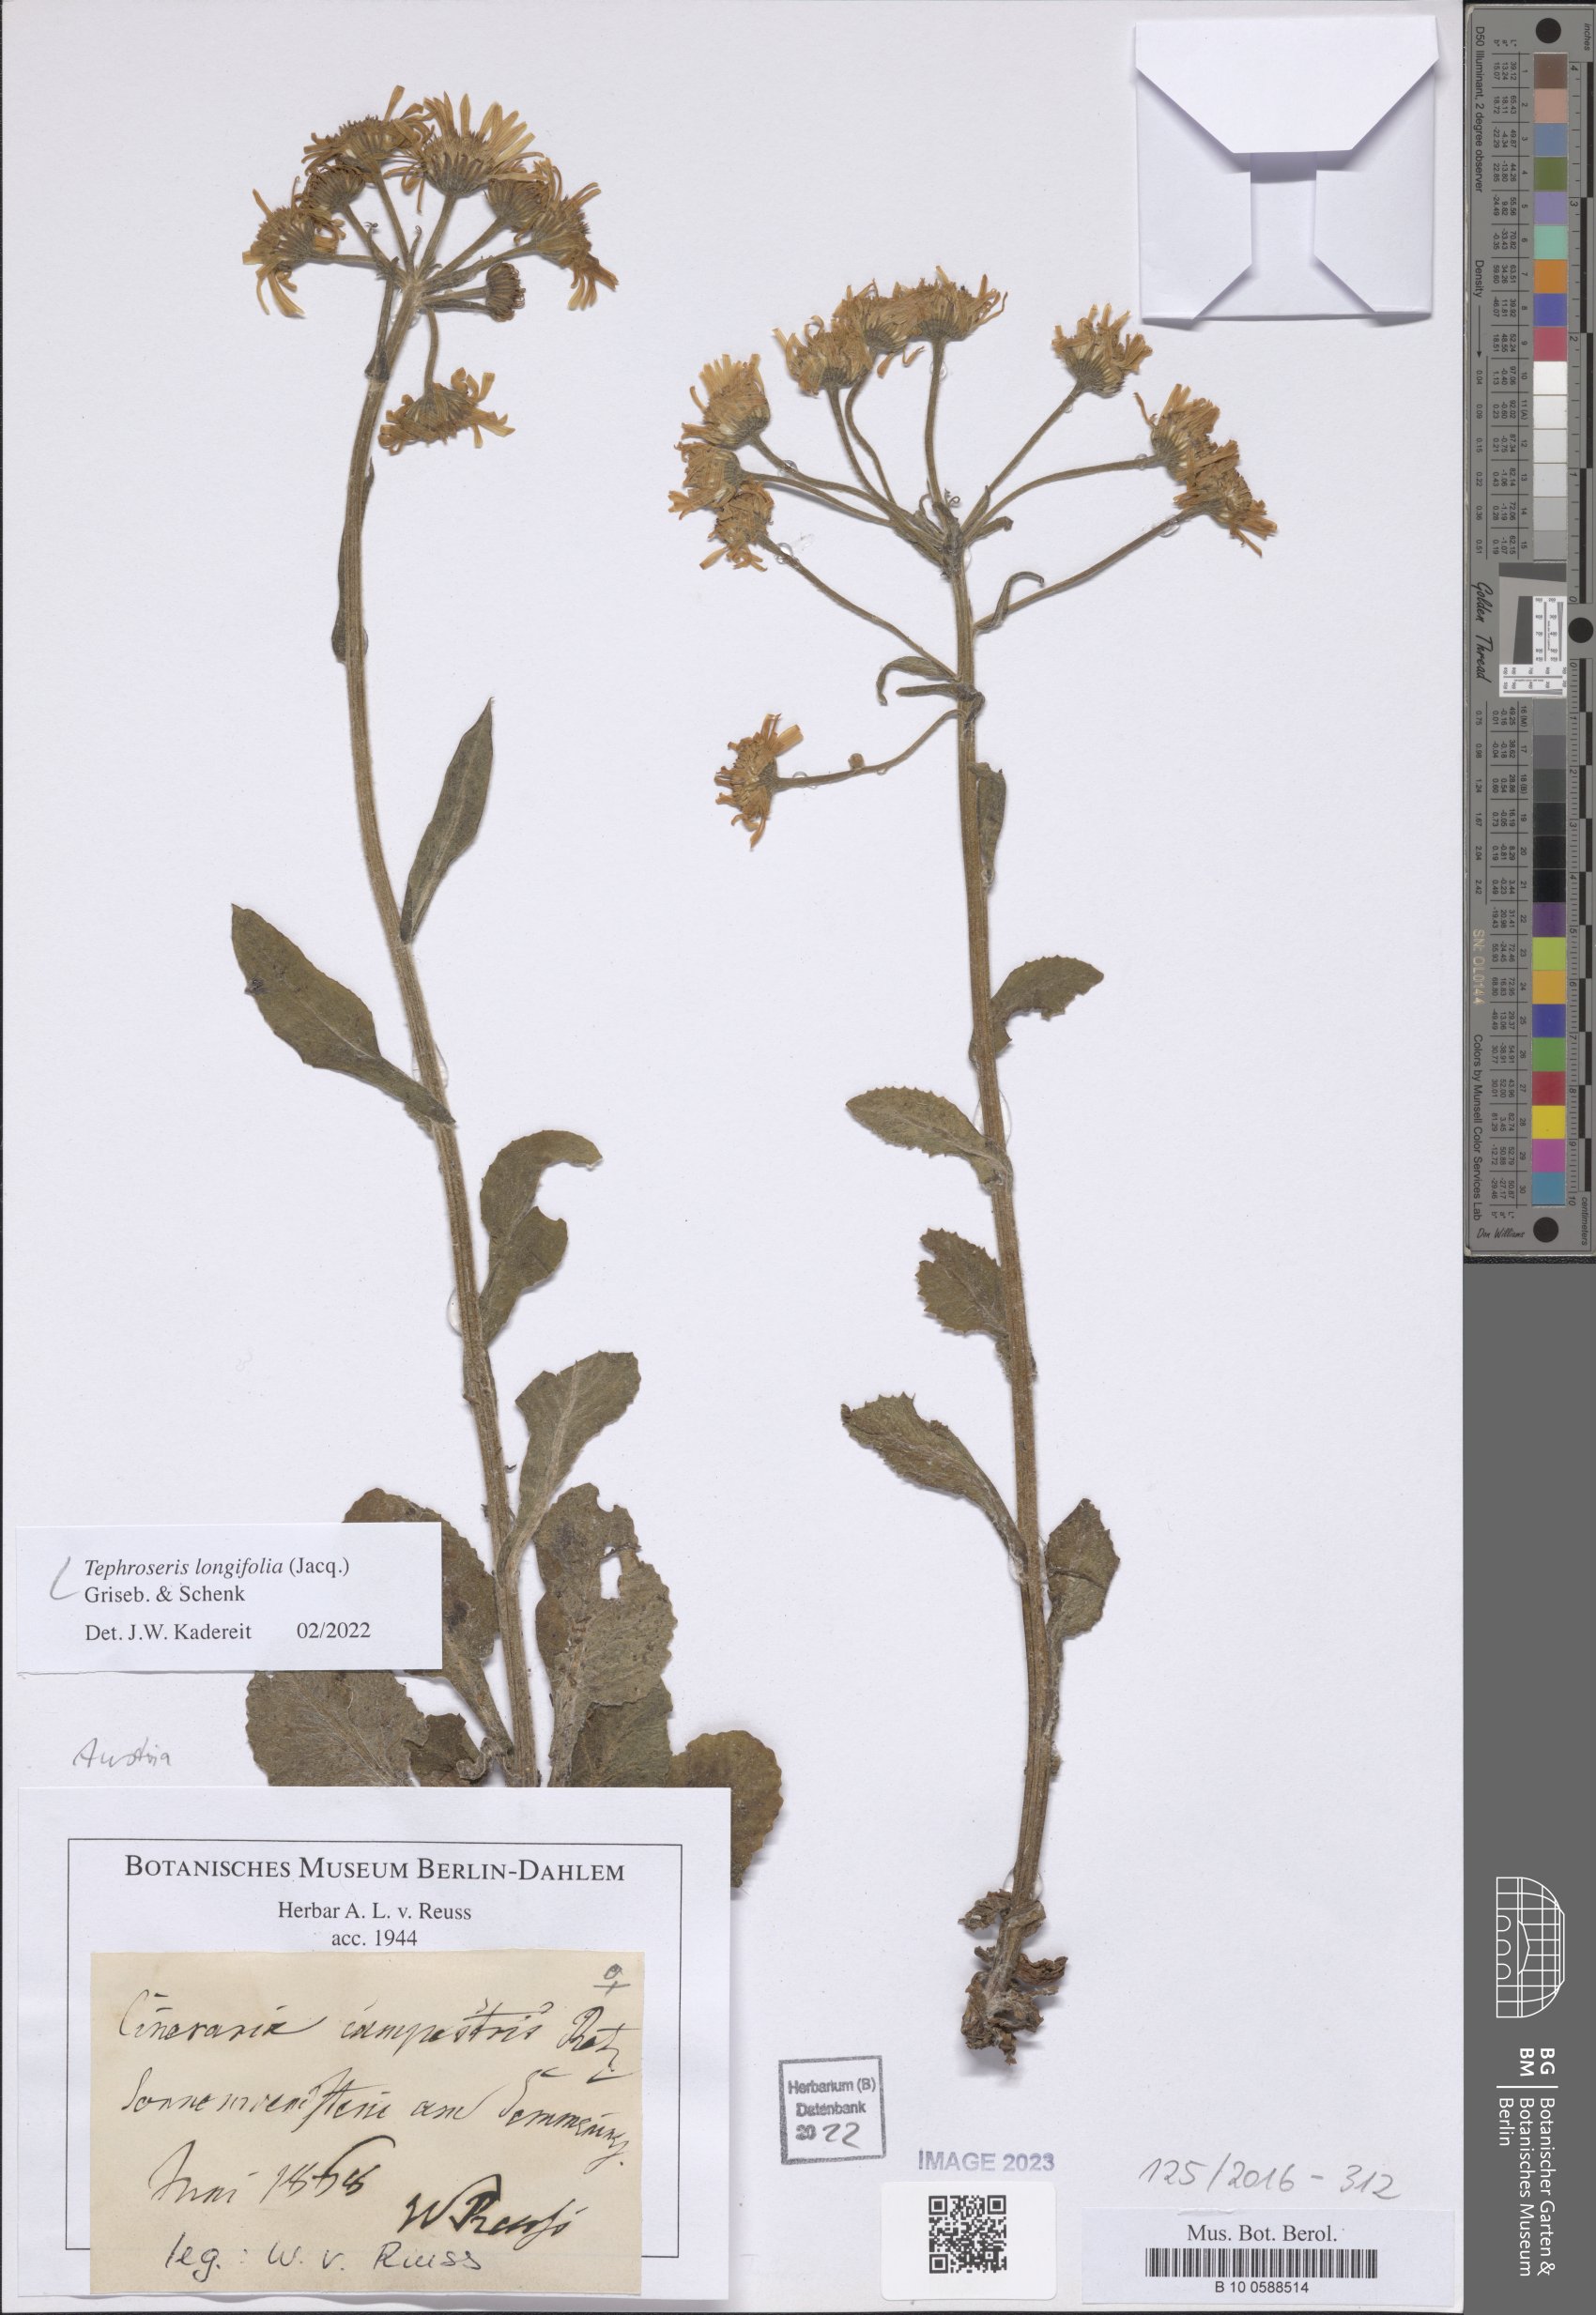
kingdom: Plantae
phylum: Tracheophyta
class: Magnoliopsida
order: Asterales
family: Asteraceae
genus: Tephroseris
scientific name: Tephroseris longifolia
